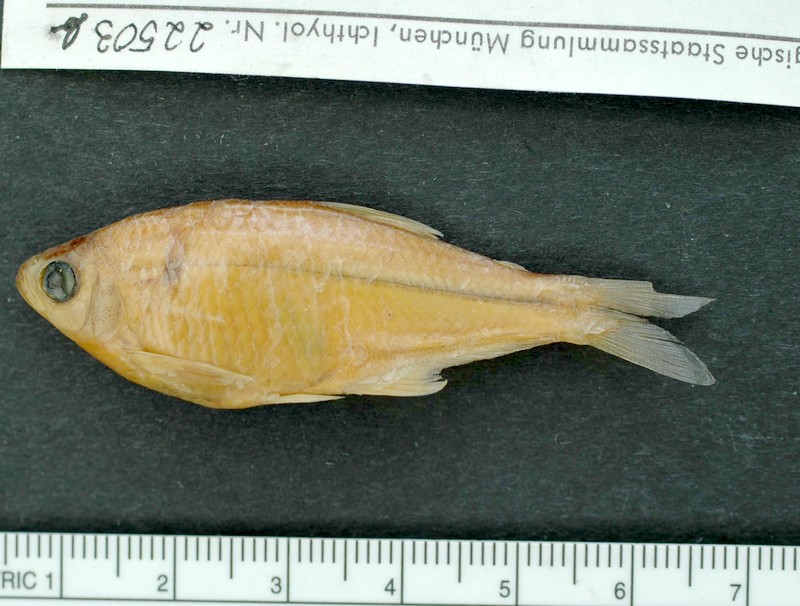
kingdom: Animalia
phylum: Chordata
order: Characiformes
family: Characidae
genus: Diapoma
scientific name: Diapoma terofali
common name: Tetra
